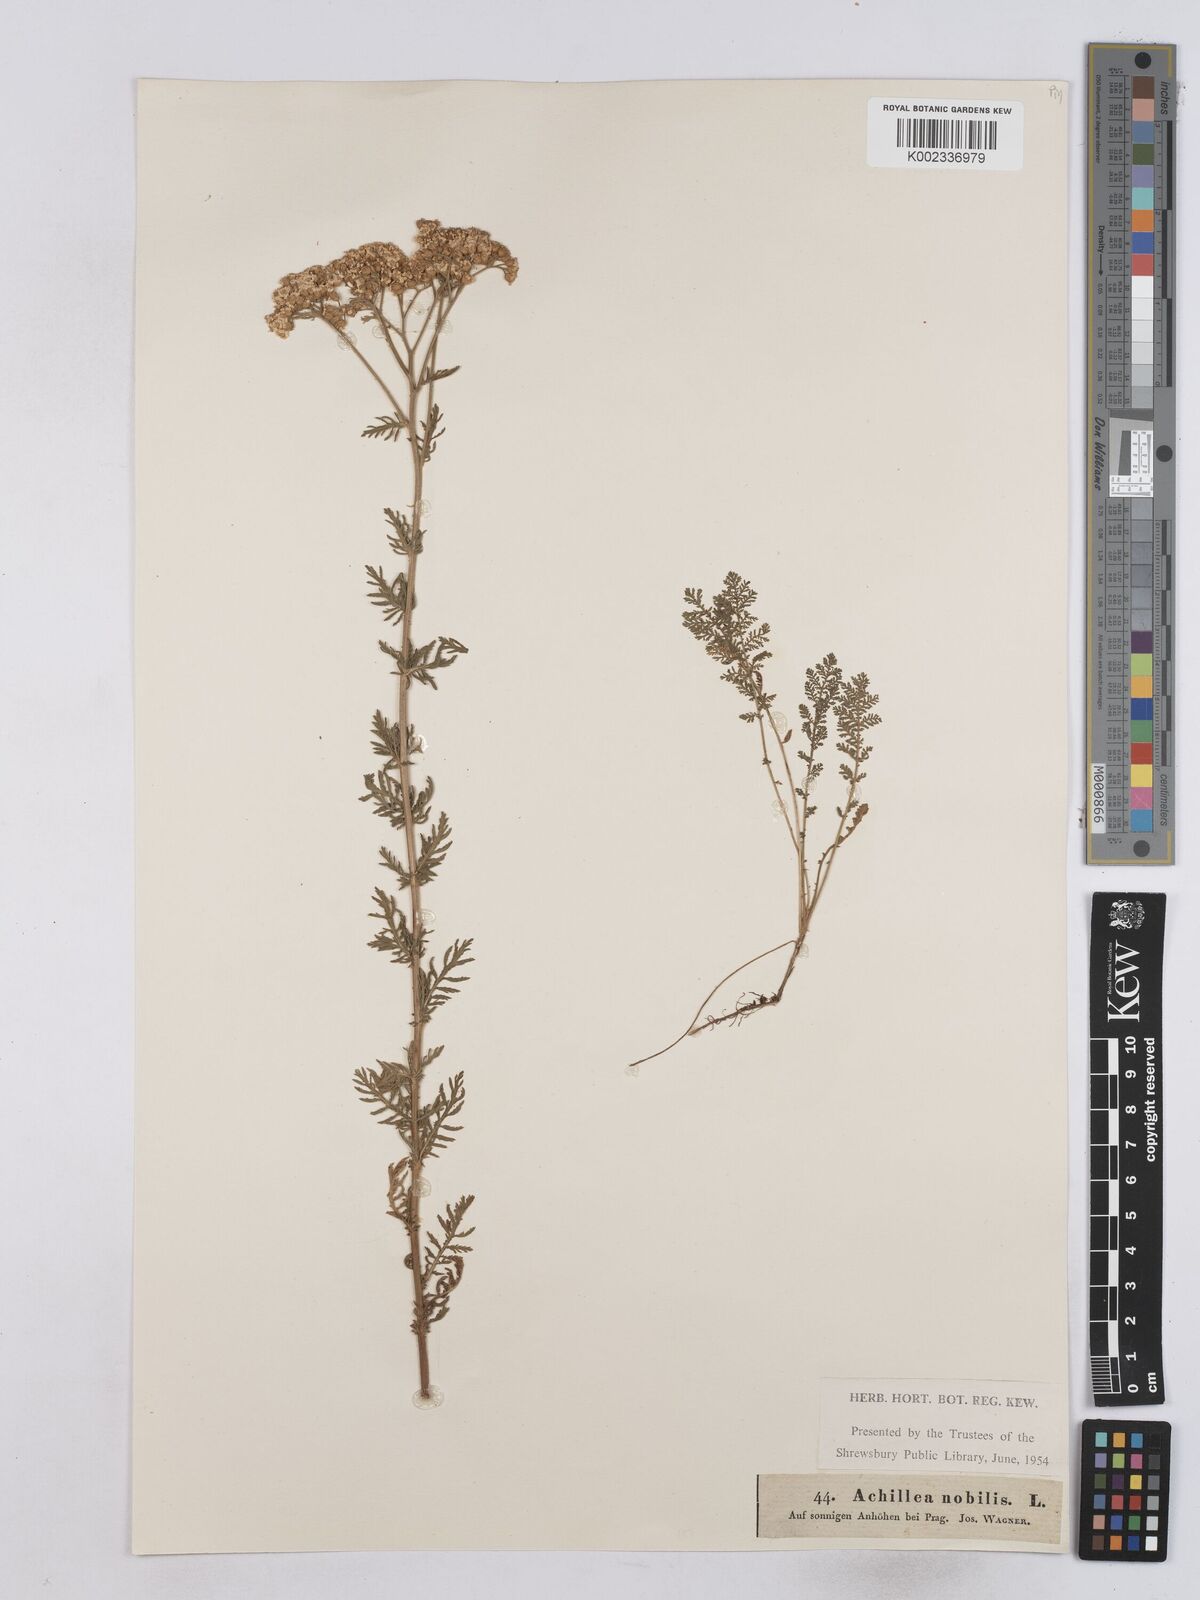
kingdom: Plantae
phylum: Tracheophyta
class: Magnoliopsida
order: Asterales
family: Asteraceae
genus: Achillea
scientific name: Achillea nobilis
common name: Noble yarrow
